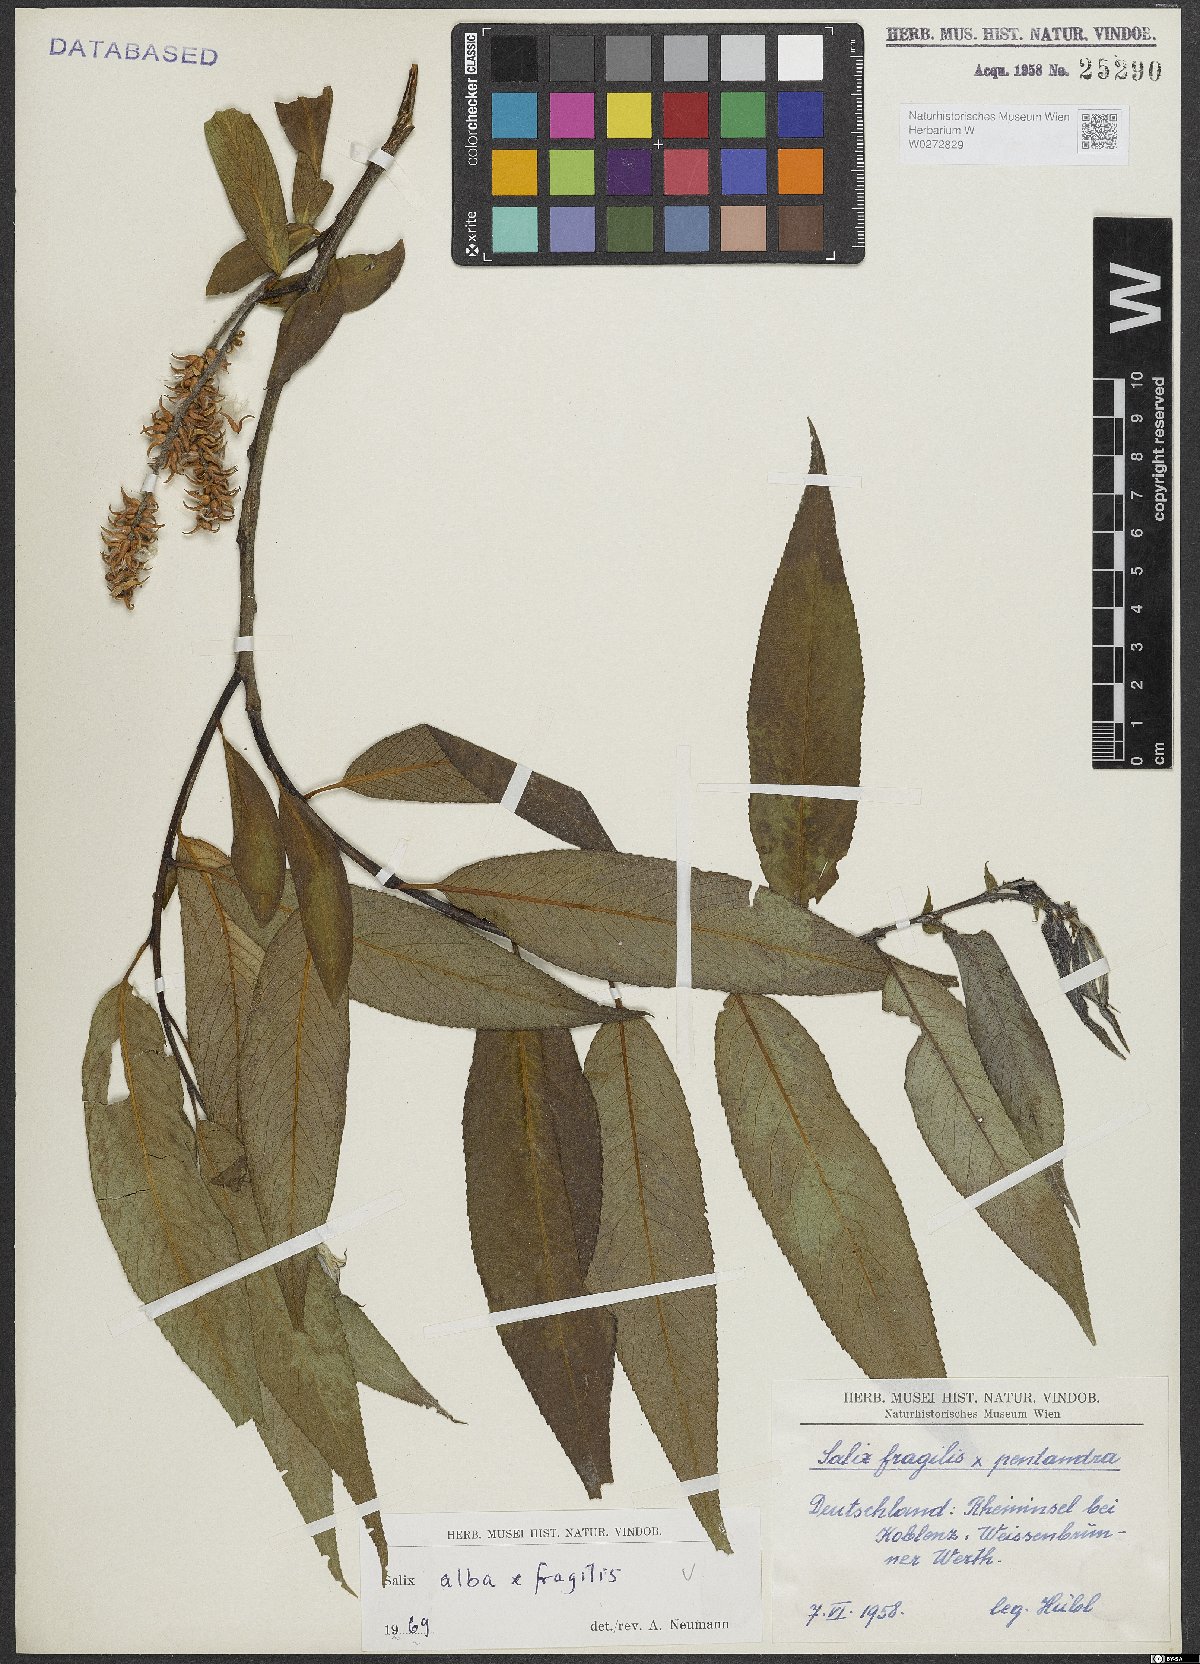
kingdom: Plantae
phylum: Tracheophyta
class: Magnoliopsida
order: Malpighiales
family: Salicaceae
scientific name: Salicaceae
